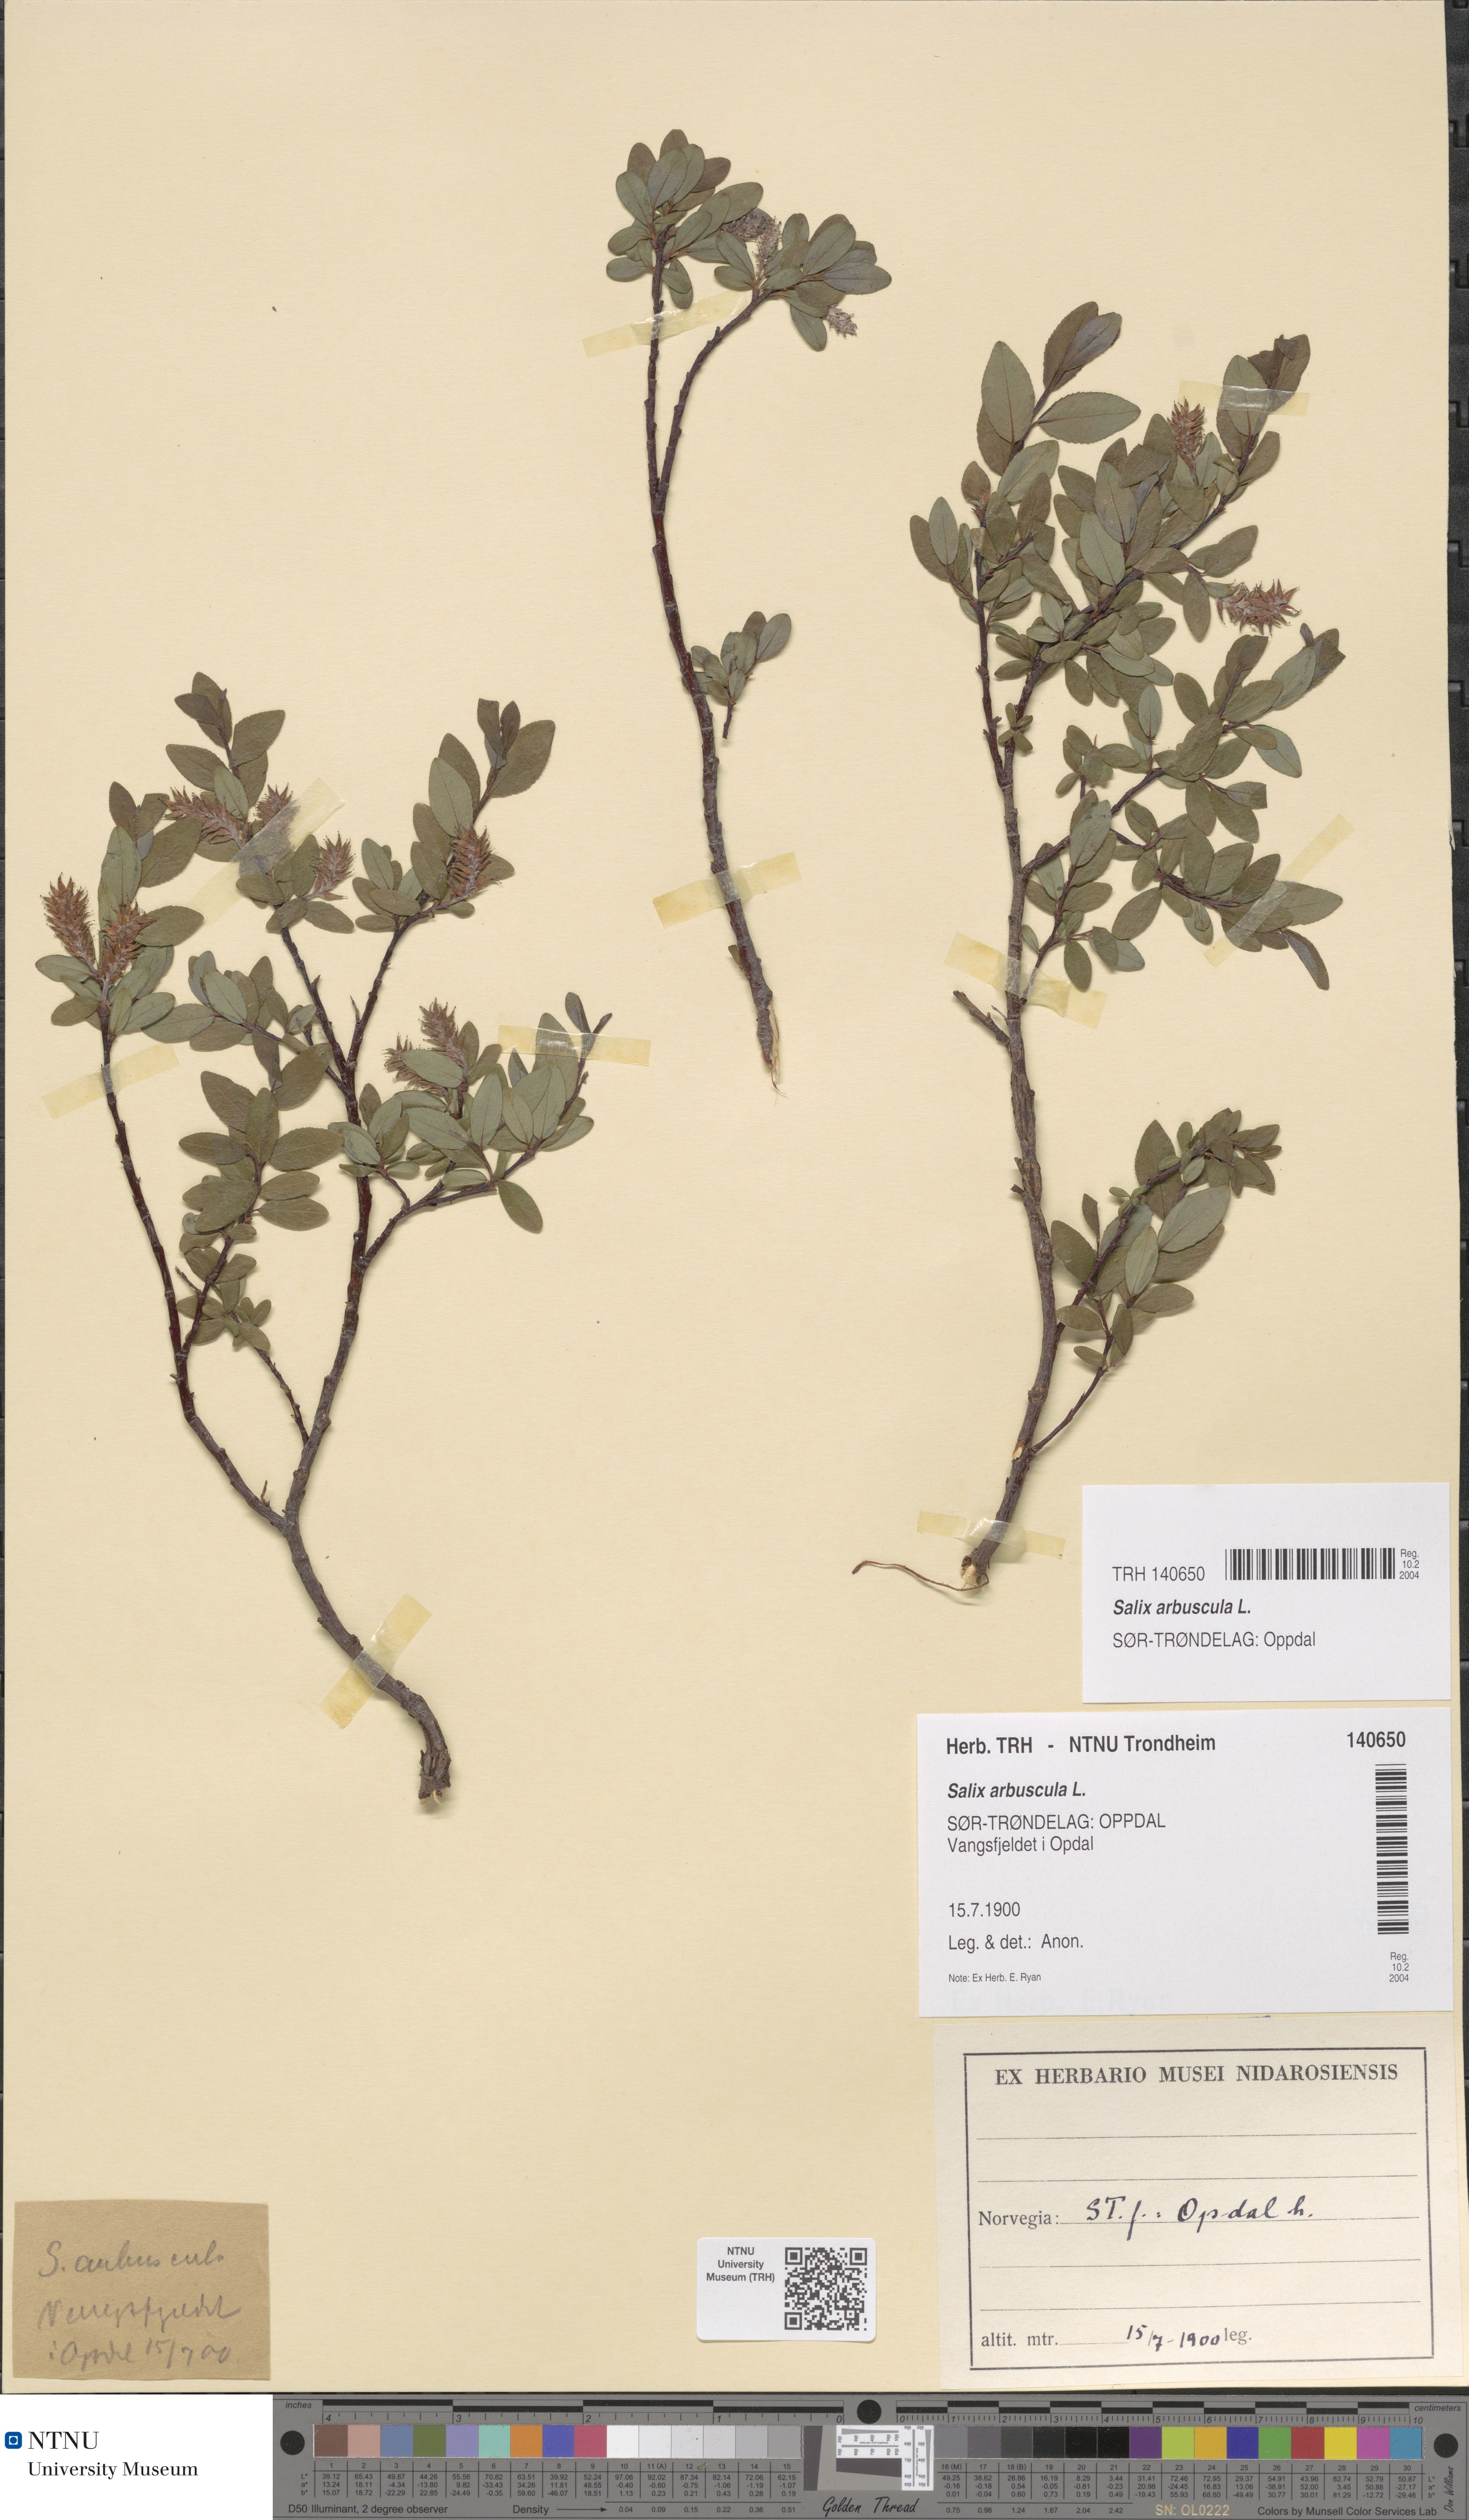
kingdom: Plantae
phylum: Tracheophyta
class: Magnoliopsida
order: Malpighiales
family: Salicaceae
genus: Salix
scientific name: Salix arbuscula
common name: Mountain willow
